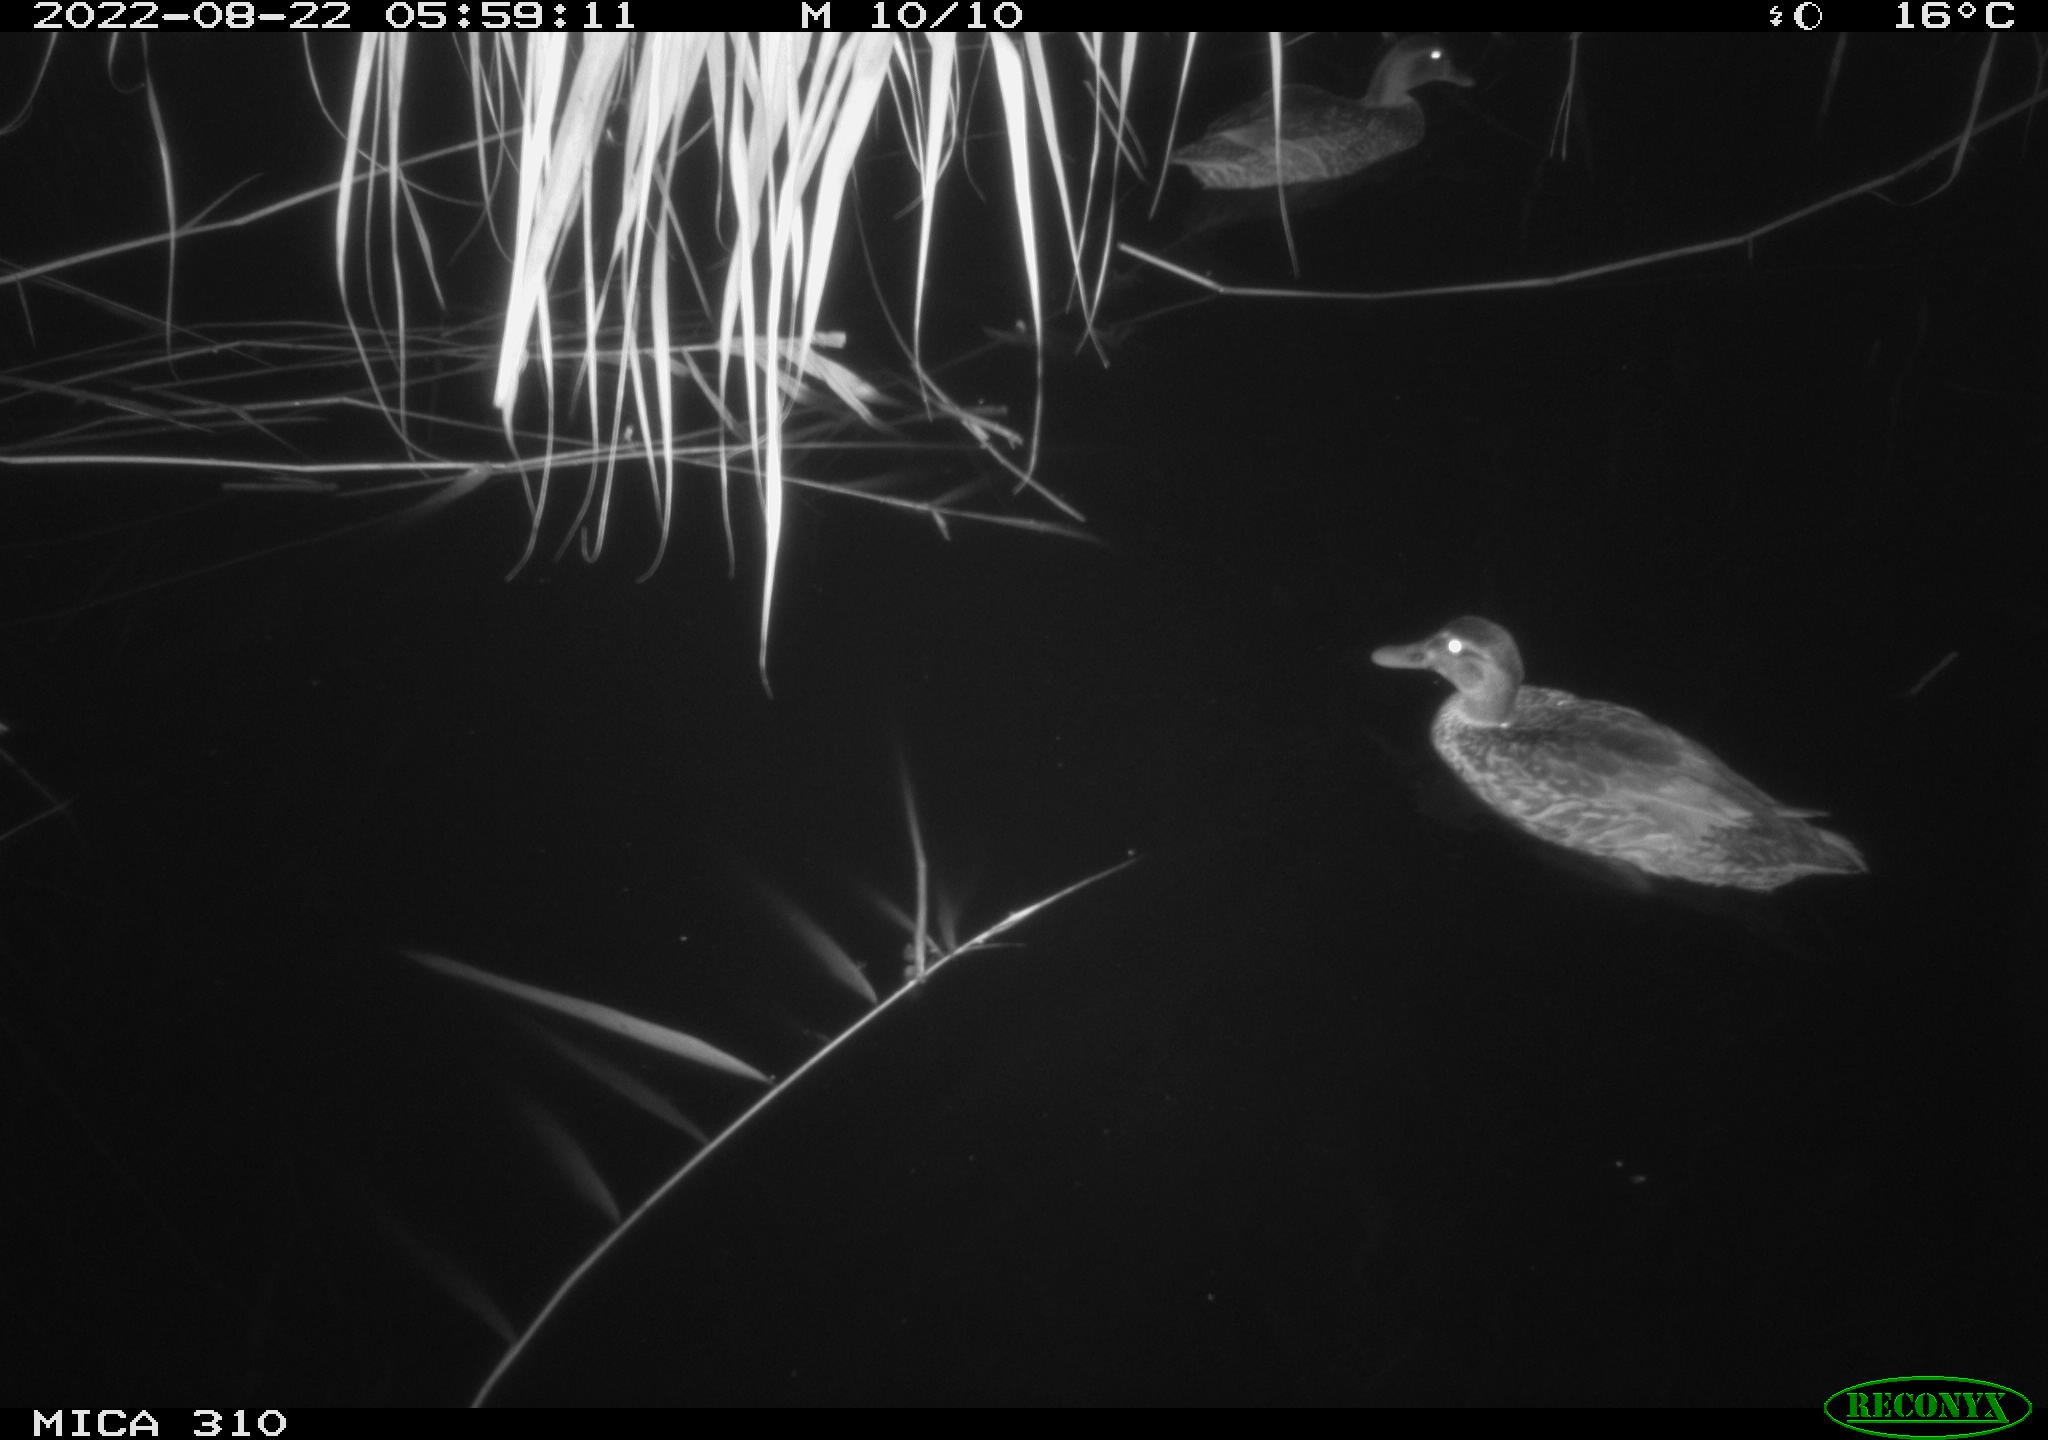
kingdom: Animalia
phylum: Chordata
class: Aves
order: Pelecaniformes
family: Ardeidae
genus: Ardea
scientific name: Ardea
